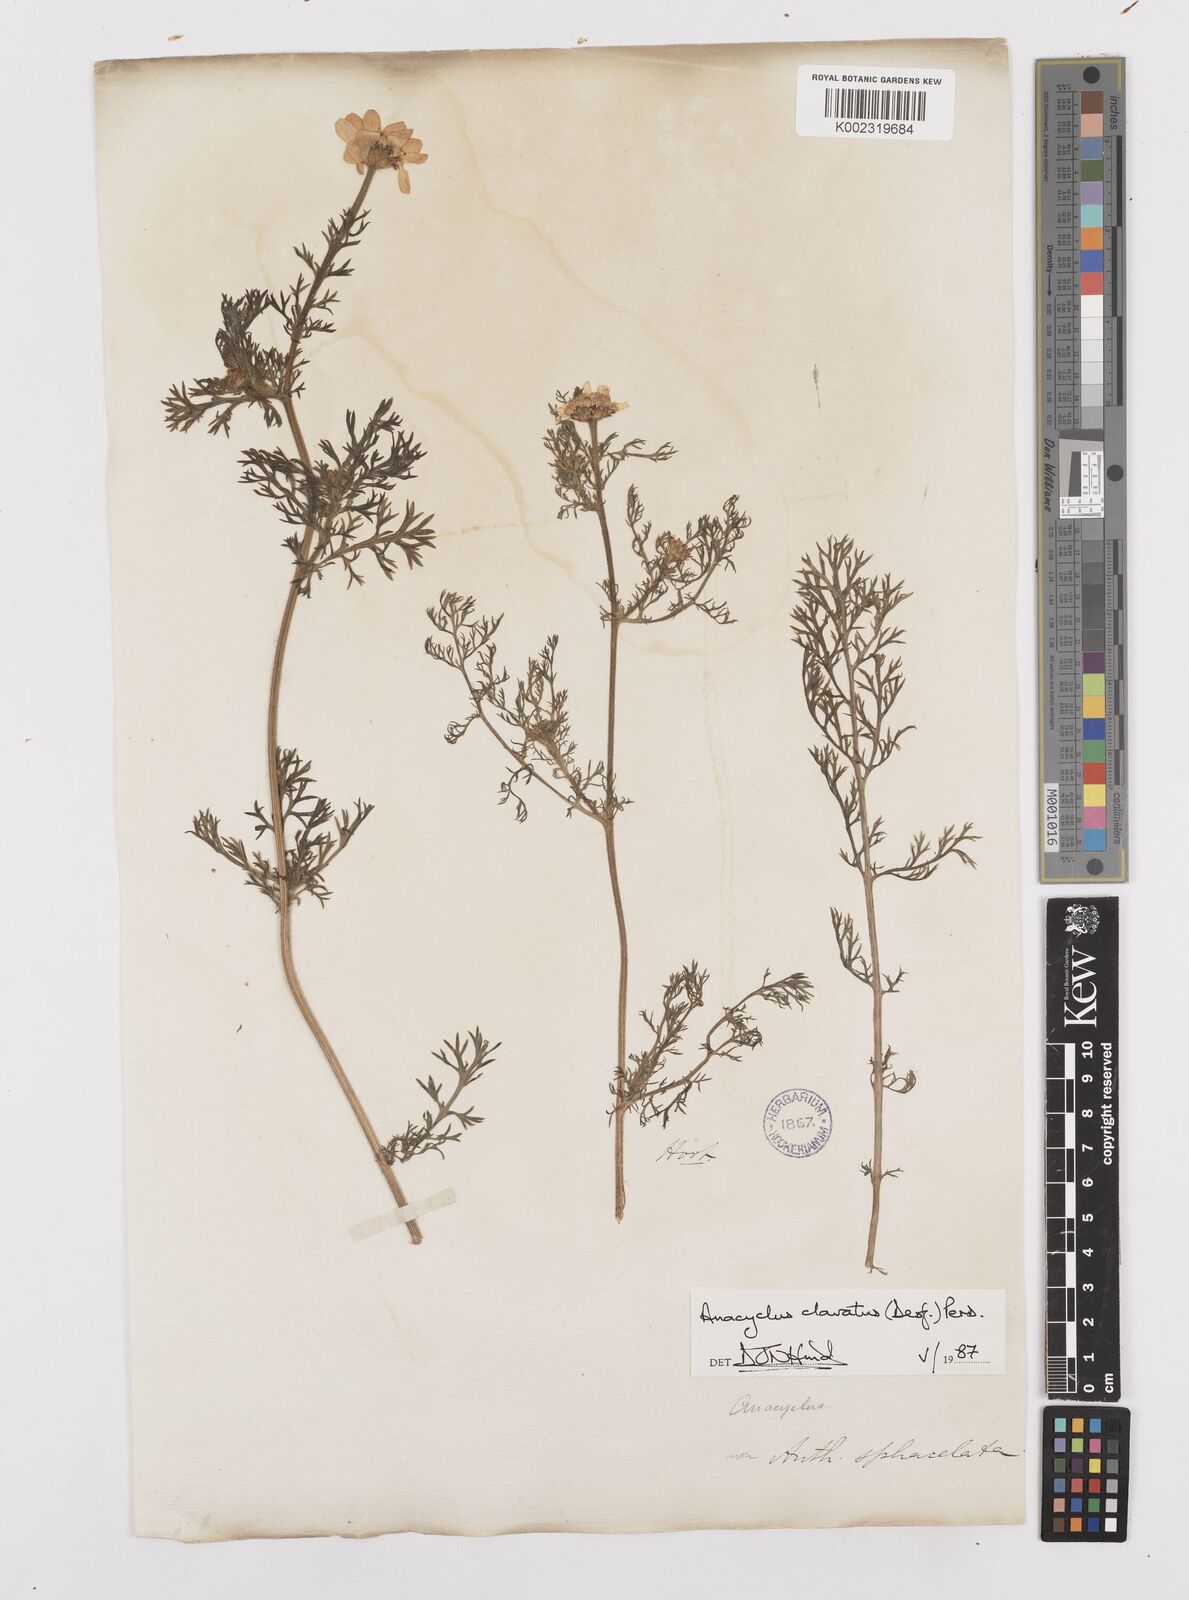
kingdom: Plantae
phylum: Tracheophyta
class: Magnoliopsida
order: Asterales
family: Asteraceae
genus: Anacyclus
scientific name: Anacyclus clavatus
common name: Whitebuttons
